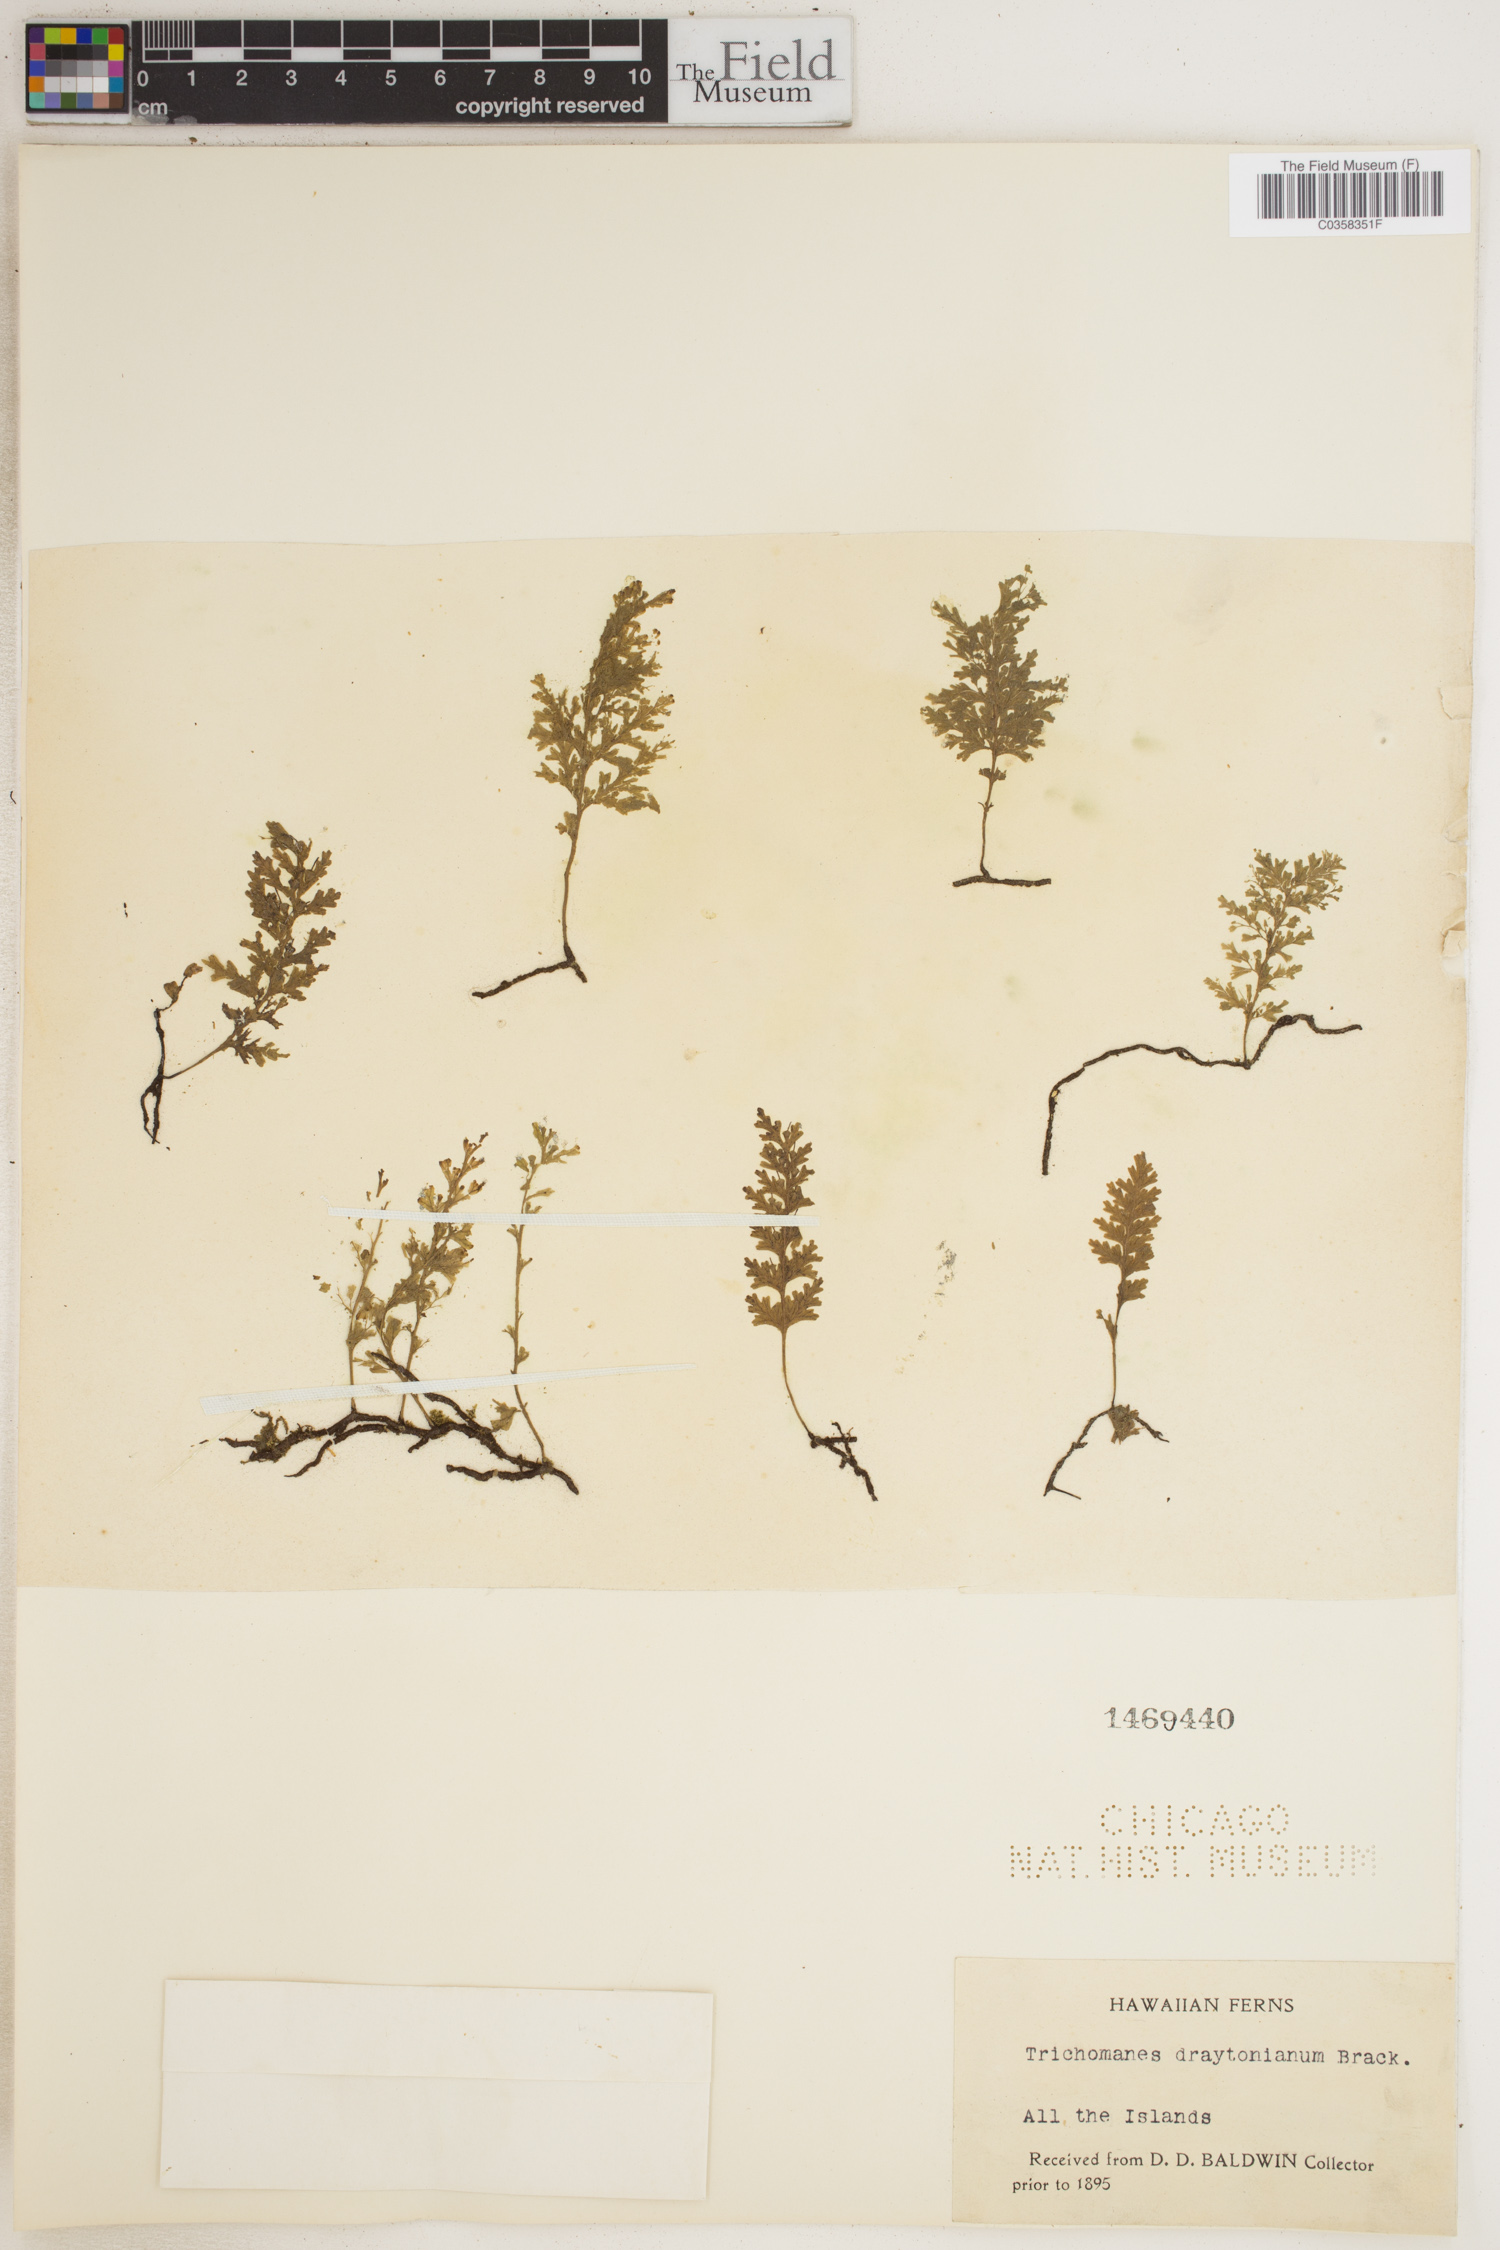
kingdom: Plantae
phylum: Tracheophyta
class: Polypodiopsida
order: Hymenophyllales
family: Hymenophyllaceae
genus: Crepidomanes
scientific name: Crepidomanes draytonianum
